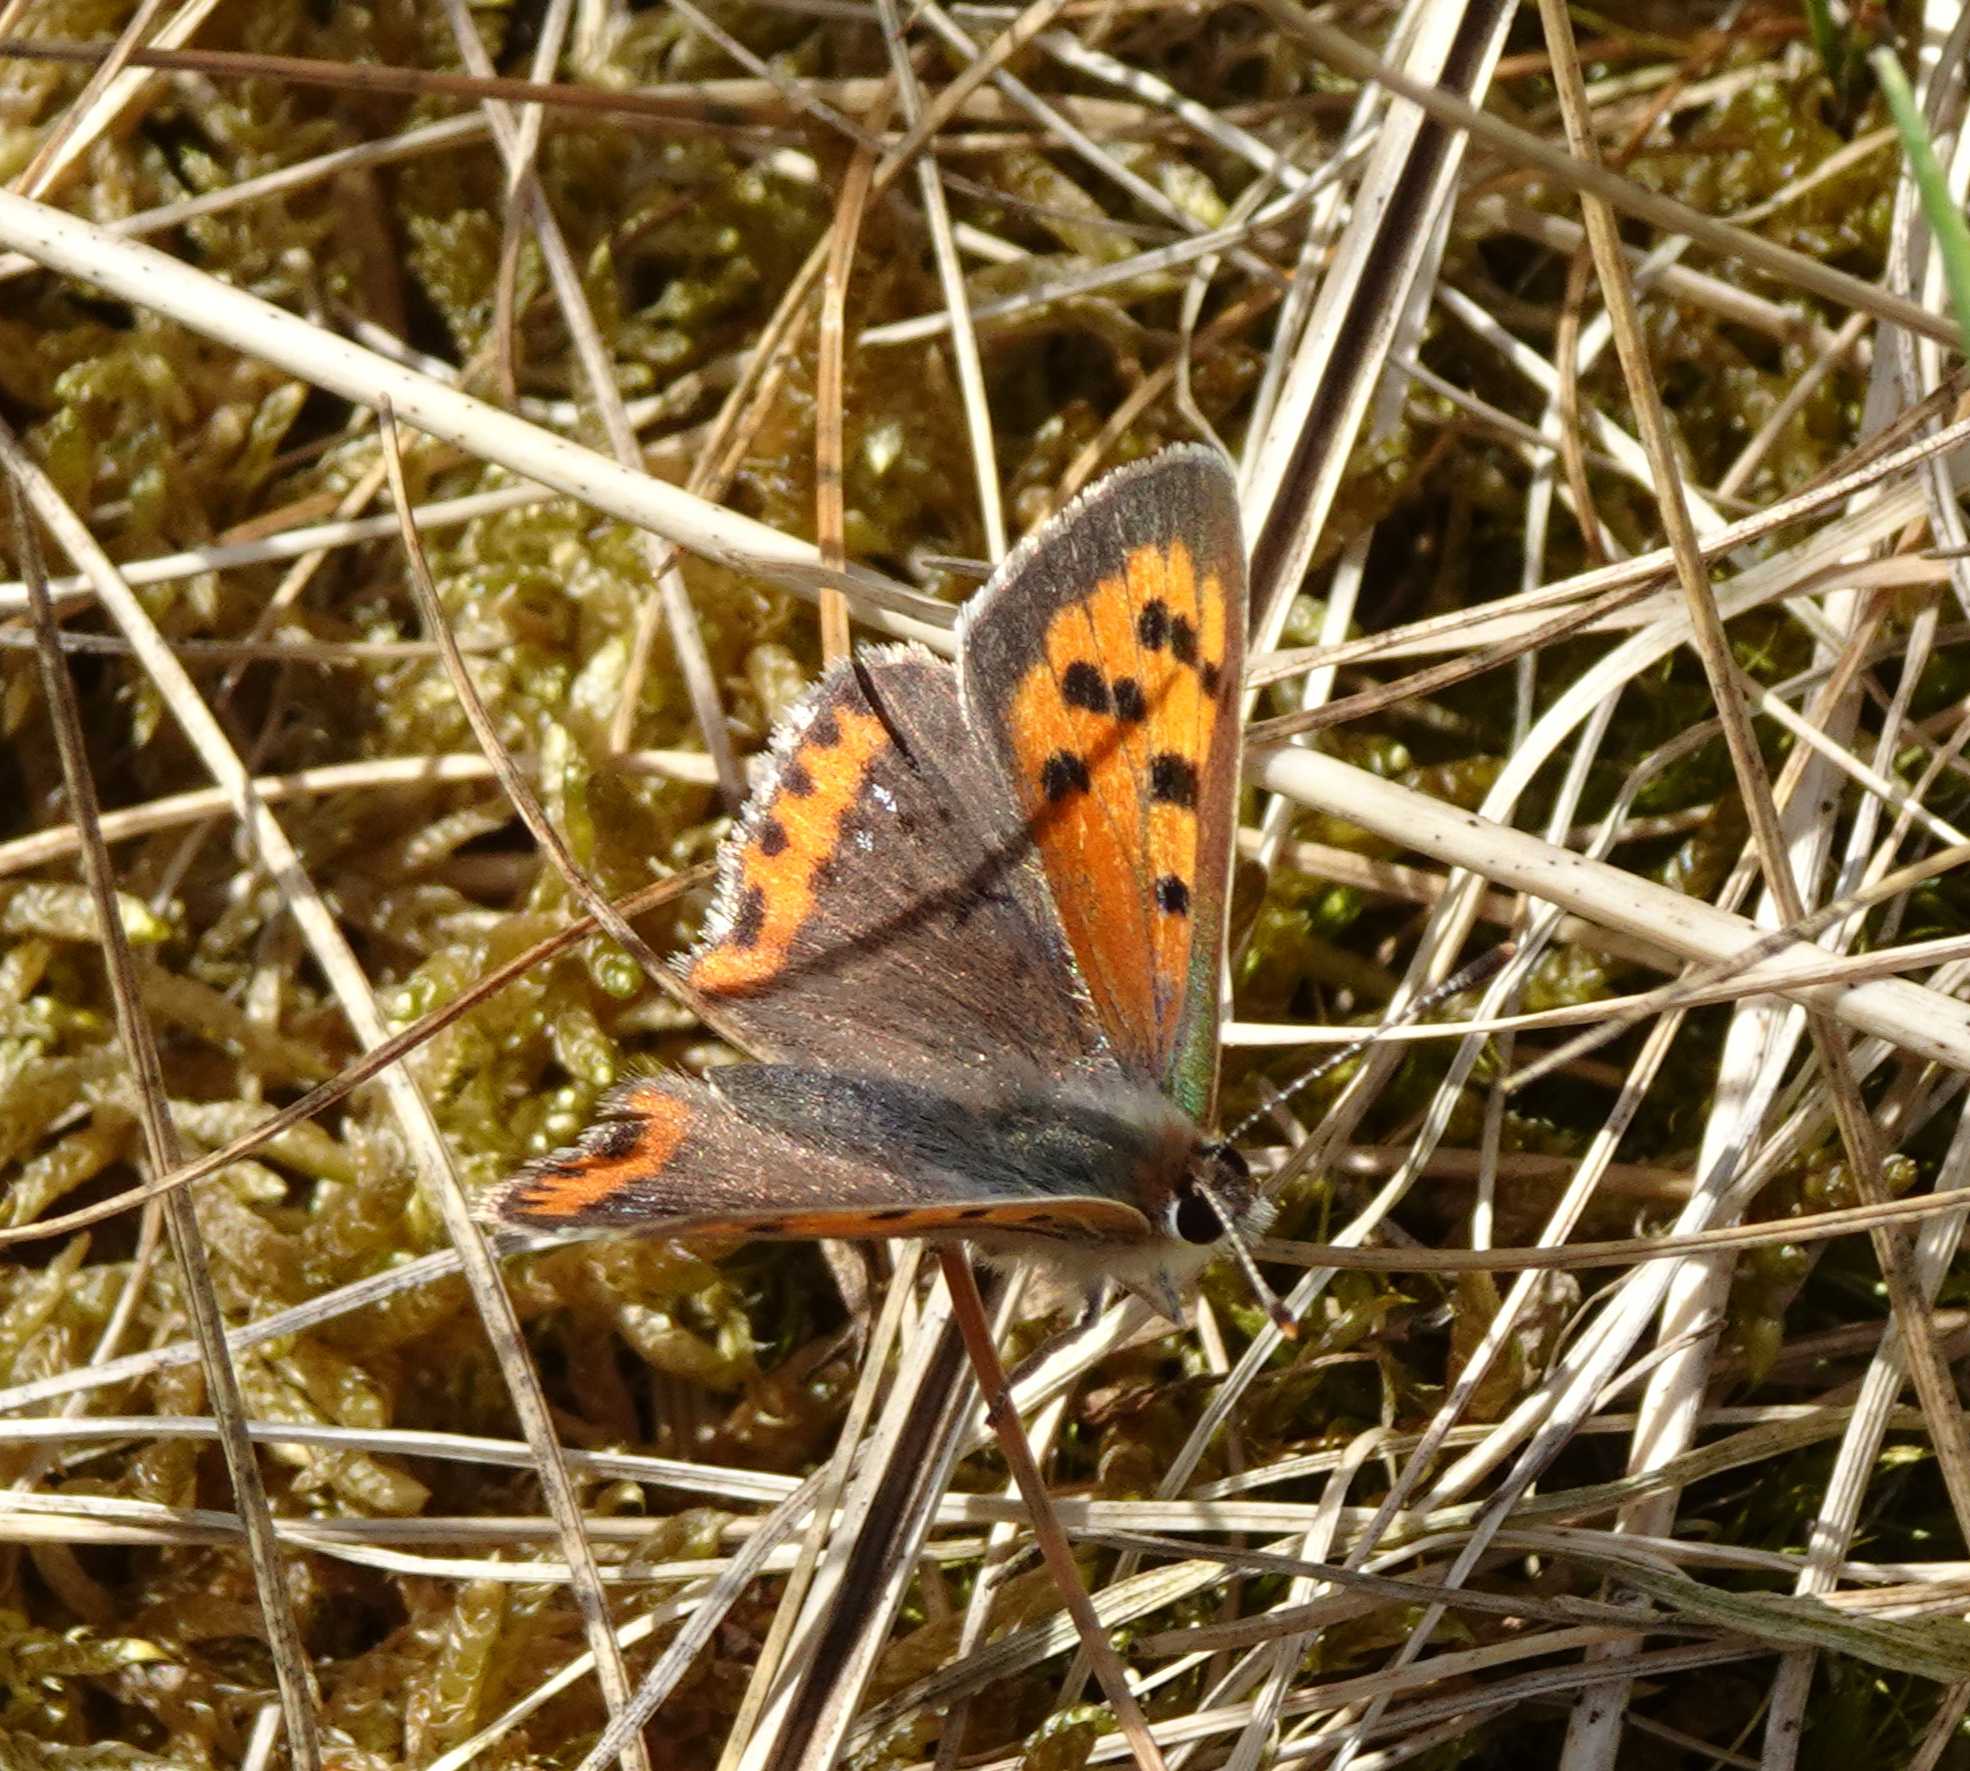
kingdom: Animalia
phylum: Arthropoda
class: Insecta
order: Lepidoptera
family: Lycaenidae
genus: Lycaena
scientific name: Lycaena phlaeas
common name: Lille ildfugl
